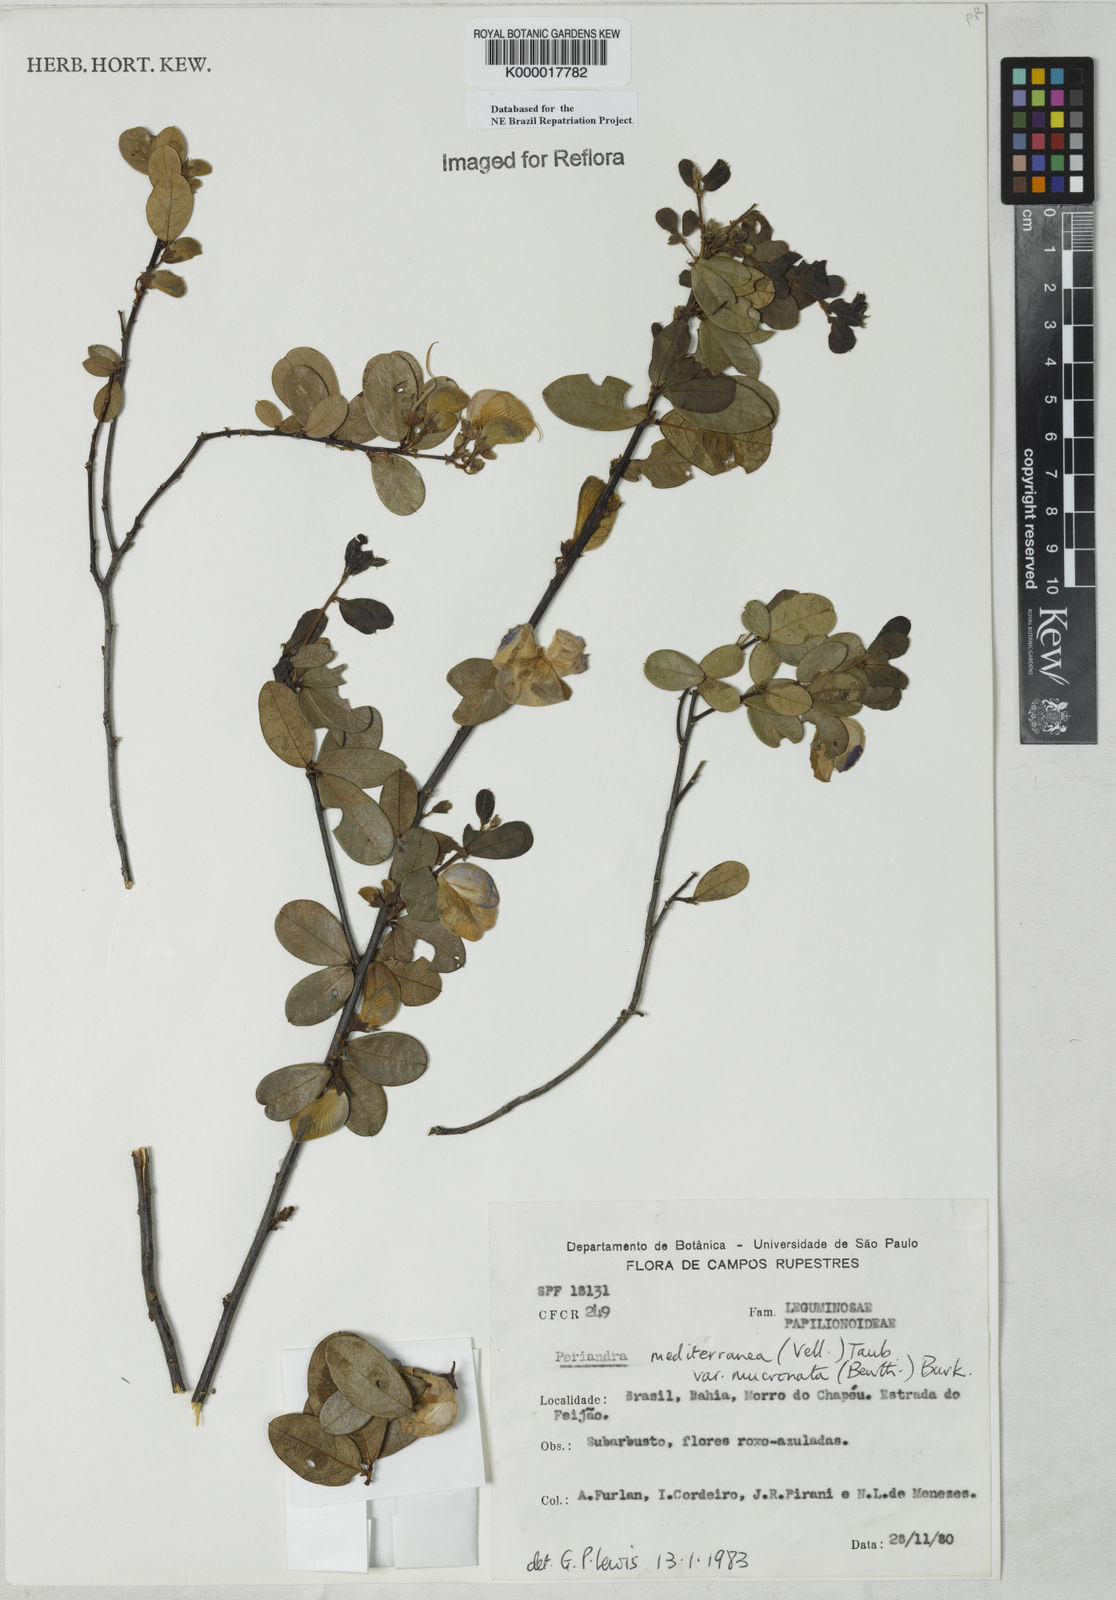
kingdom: Plantae
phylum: Tracheophyta
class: Magnoliopsida
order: Fabales
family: Fabaceae
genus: Periandra
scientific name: Periandra mediterranea
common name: Brazilian licorice
